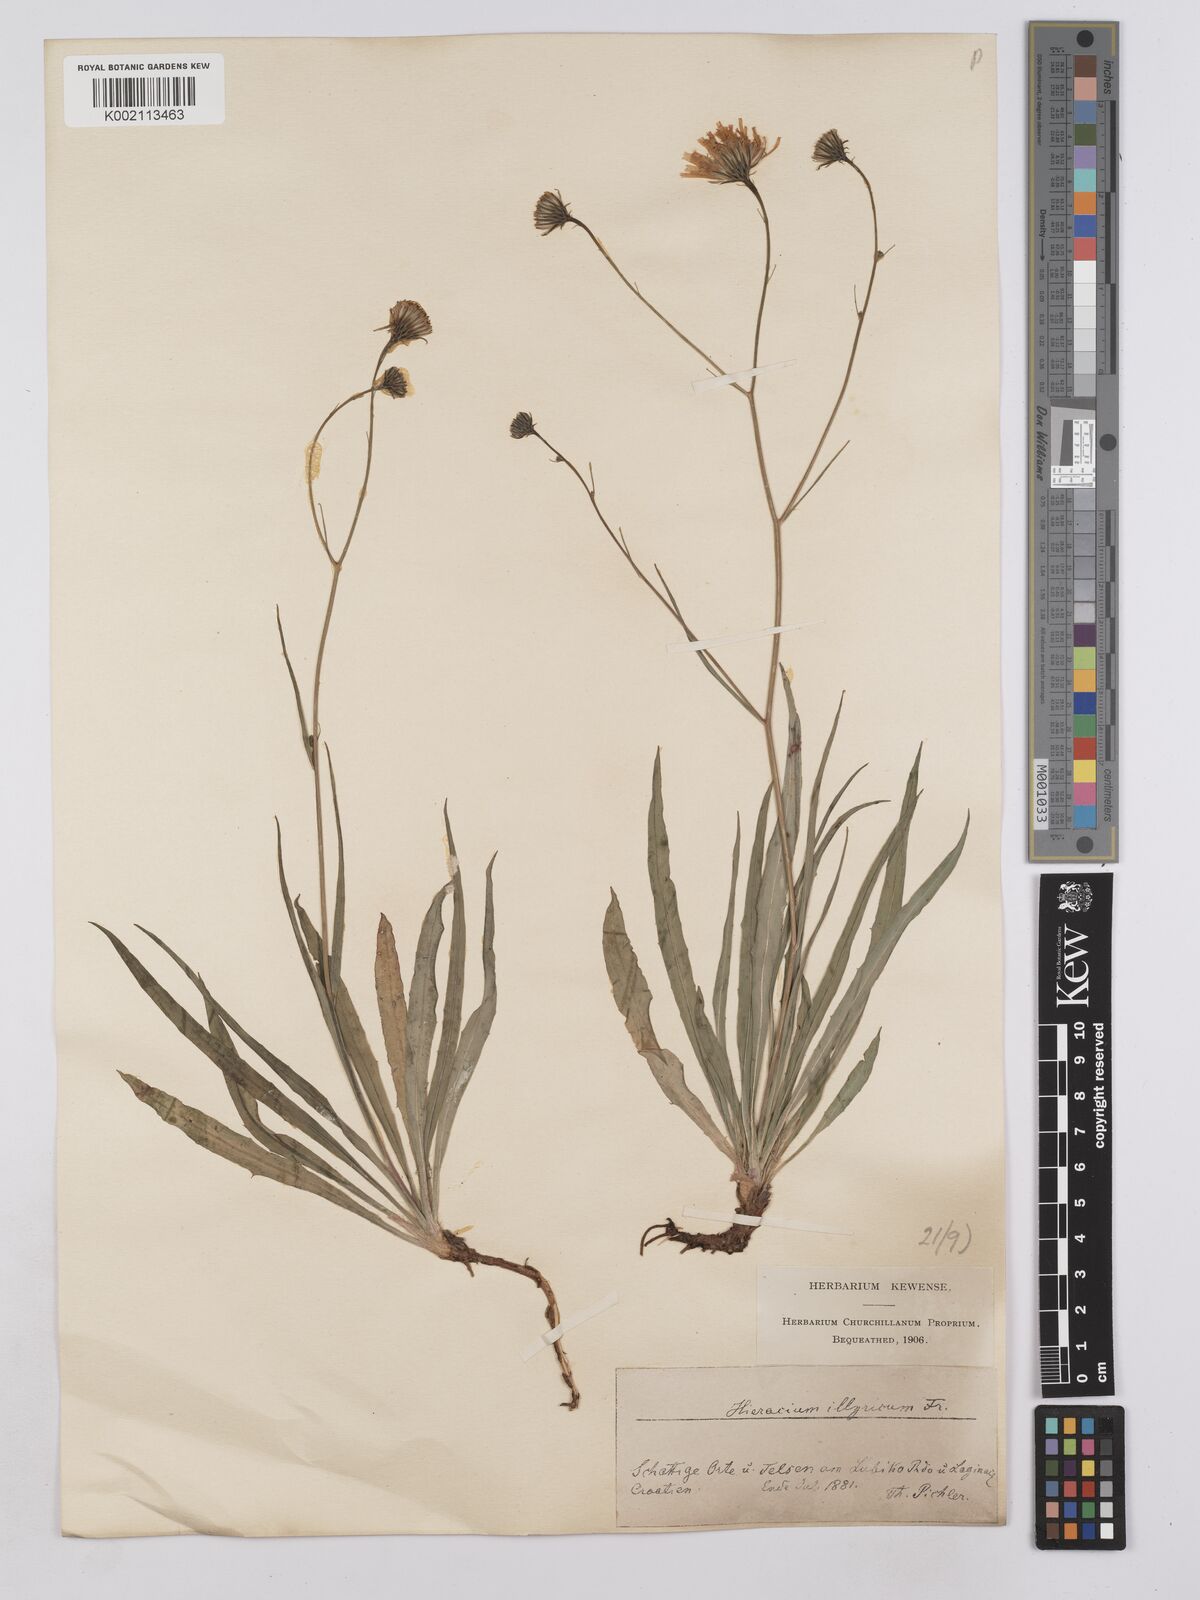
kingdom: Plantae
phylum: Tracheophyta
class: Magnoliopsida
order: Asterales
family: Asteraceae
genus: Hieracium
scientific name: Hieracium calcareum
